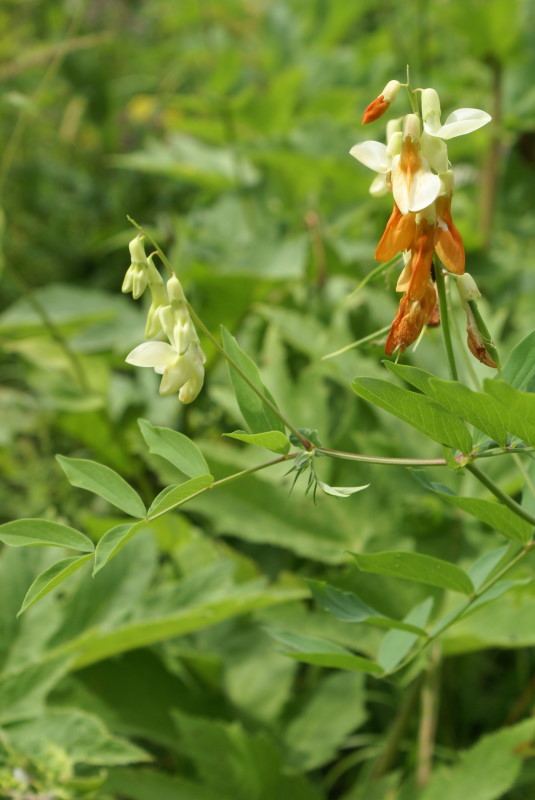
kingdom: Plantae
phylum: Tracheophyta
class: Magnoliopsida
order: Fabales
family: Fabaceae
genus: Lathyrus
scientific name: Lathyrus gmelinii
